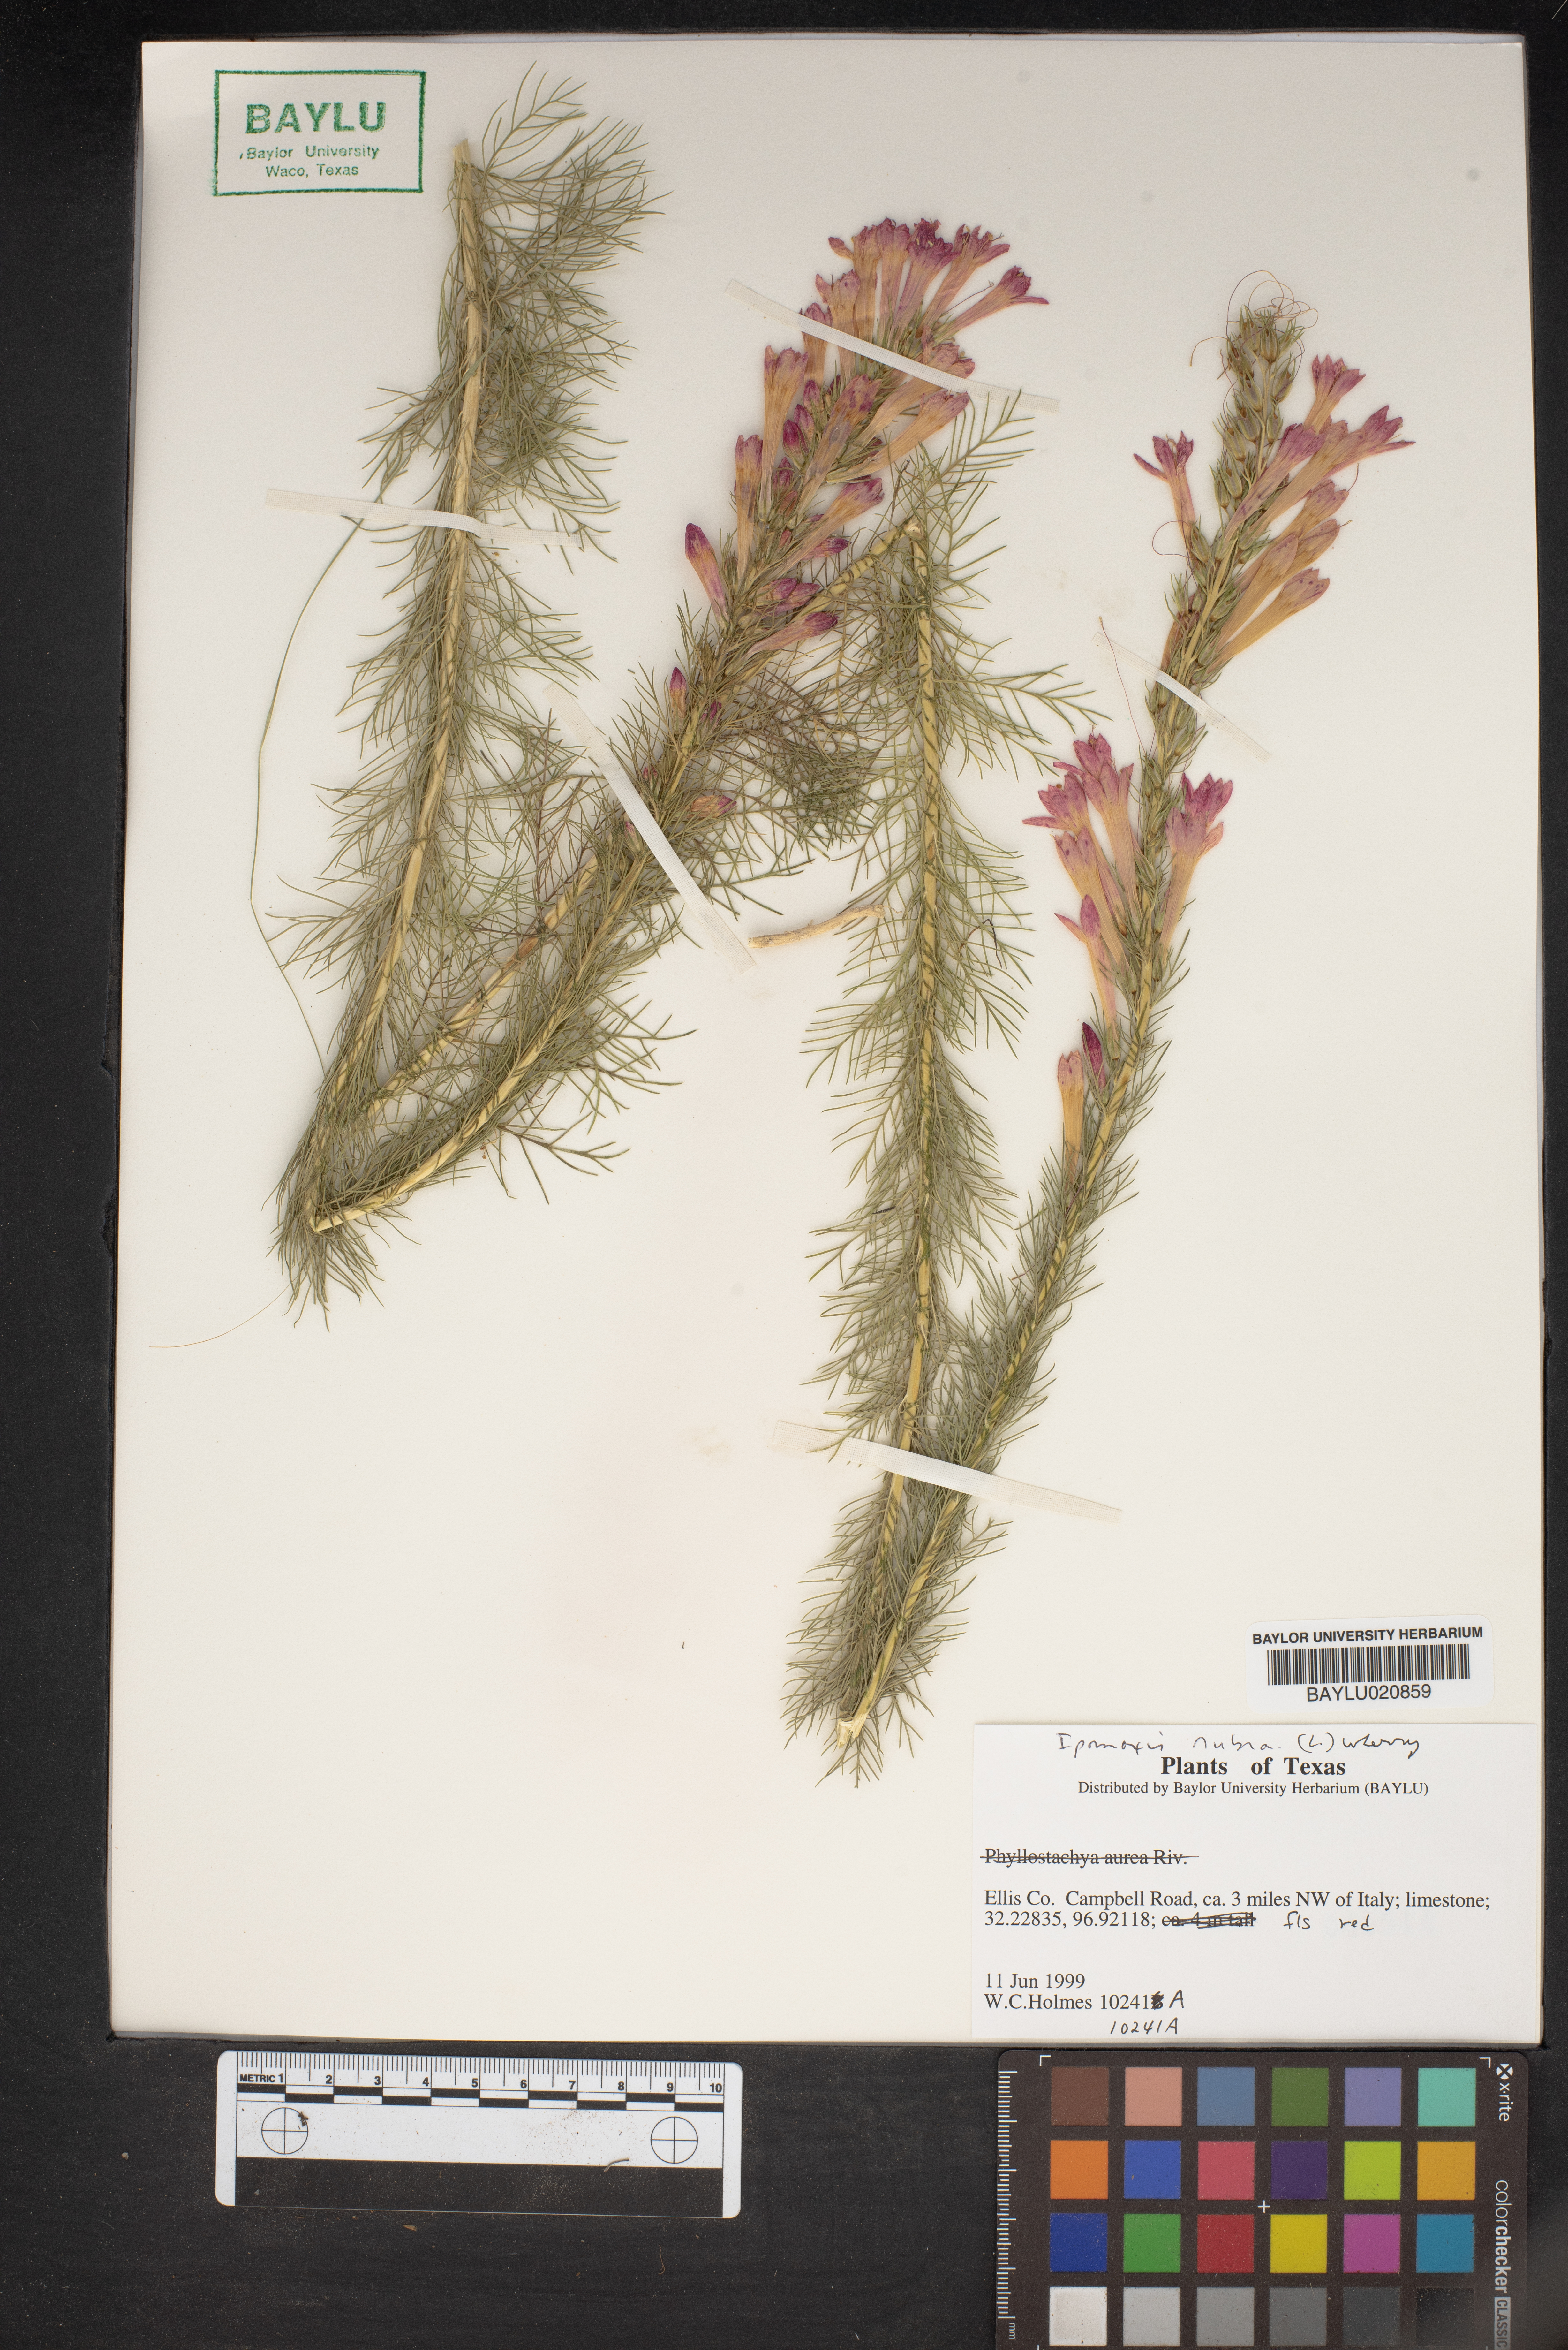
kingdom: Plantae
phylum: Tracheophyta
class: Magnoliopsida
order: Ericales
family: Polemoniaceae
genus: Ipomopsis
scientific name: Ipomopsis rubra
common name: Skyrocket
